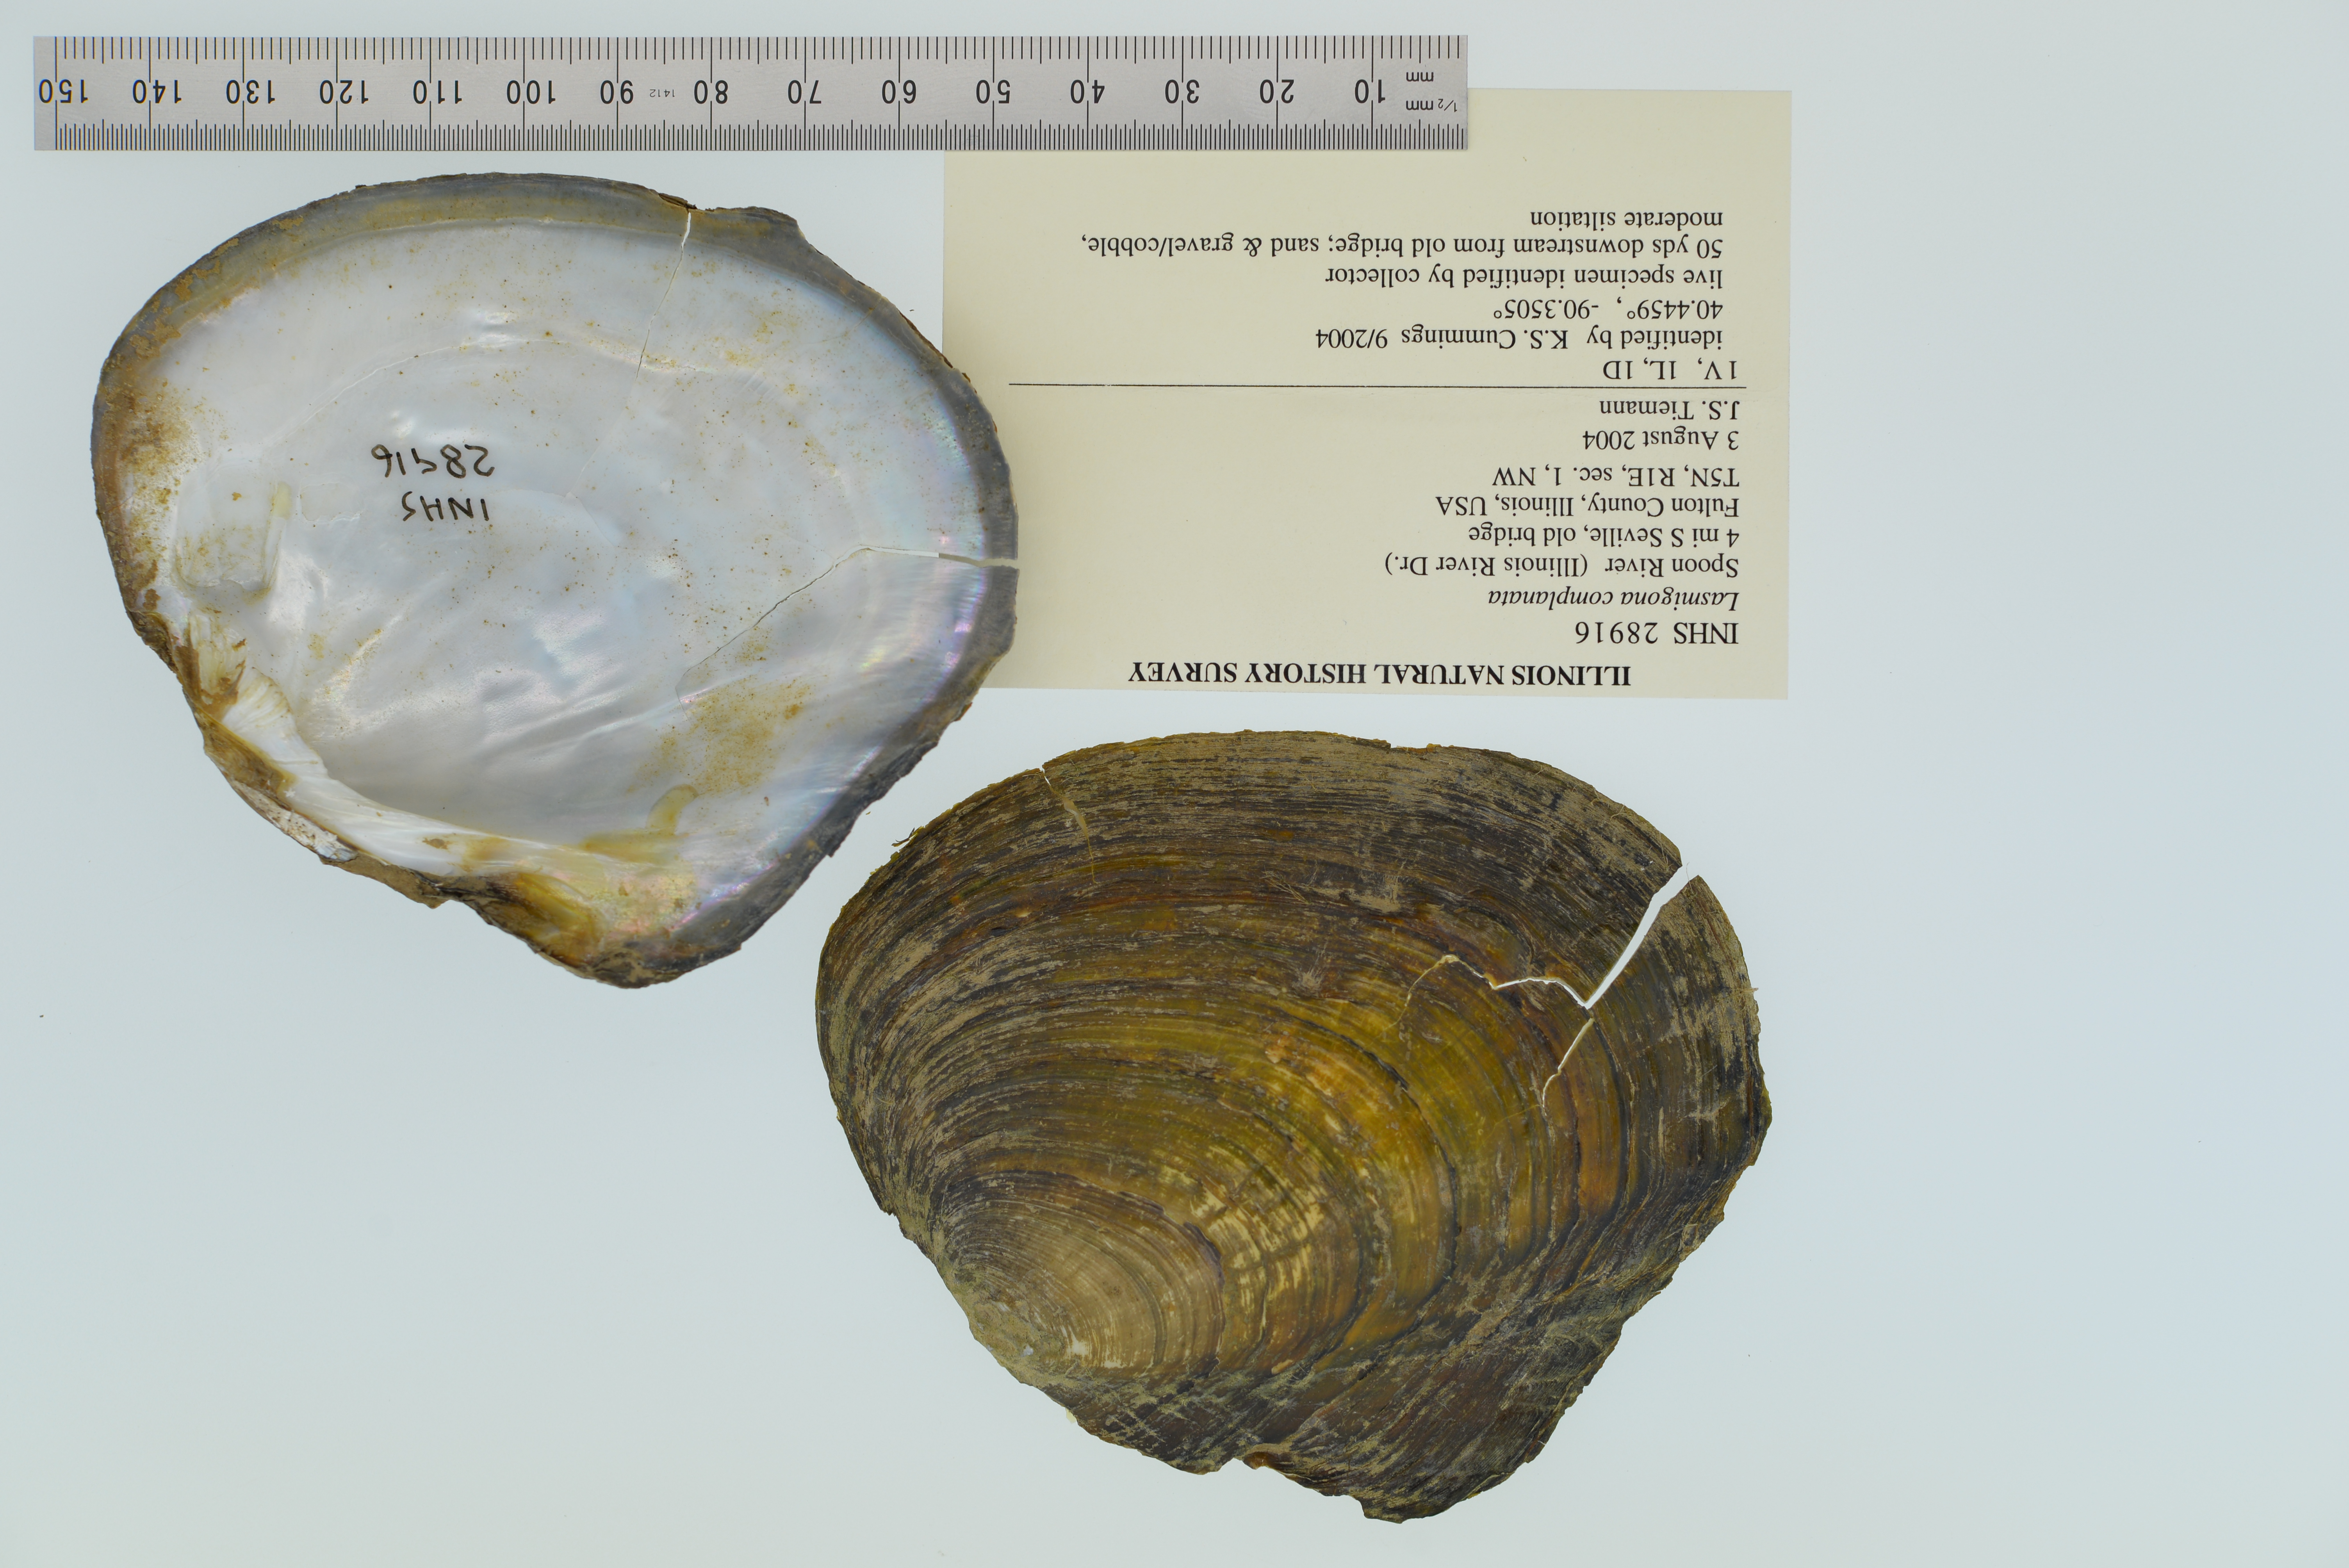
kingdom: Animalia
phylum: Mollusca
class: Bivalvia
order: Unionida
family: Unionidae
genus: Lasmigona
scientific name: Lasmigona complanata
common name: White heelsplitter
